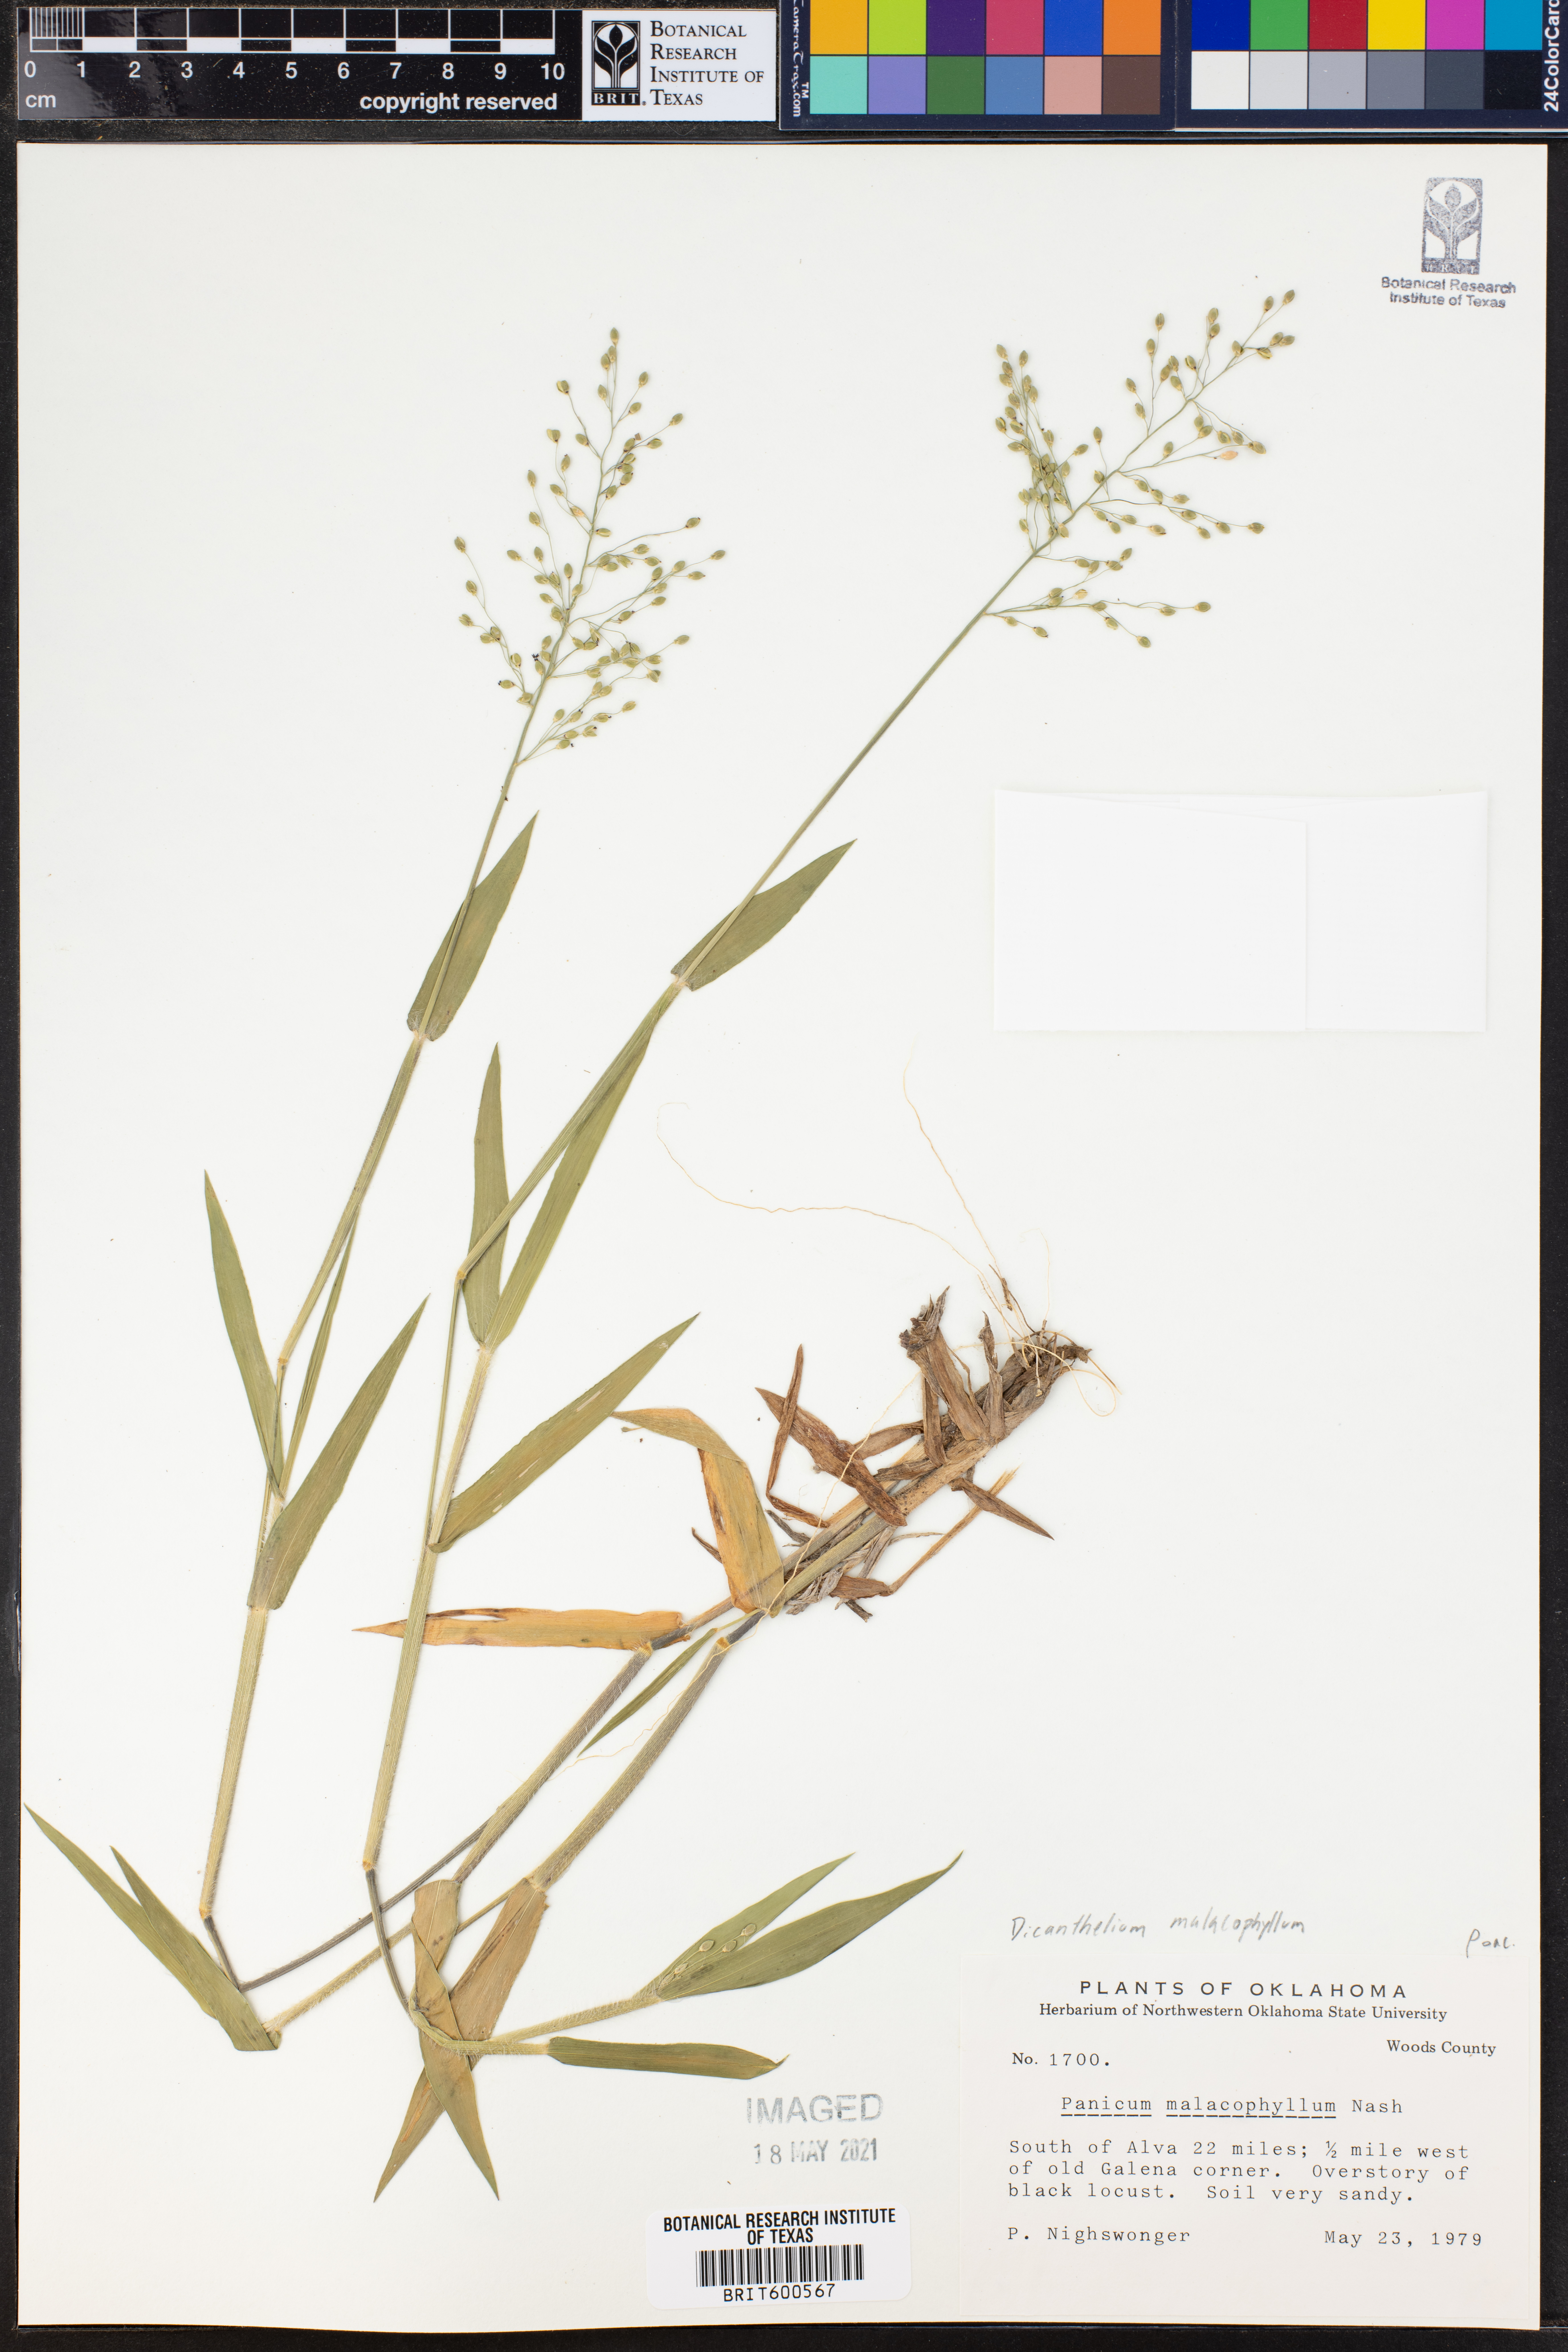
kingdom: Plantae
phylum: Tracheophyta
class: Liliopsida
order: Poales
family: Poaceae
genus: Dichanthelium
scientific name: Dichanthelium malacophyllum
